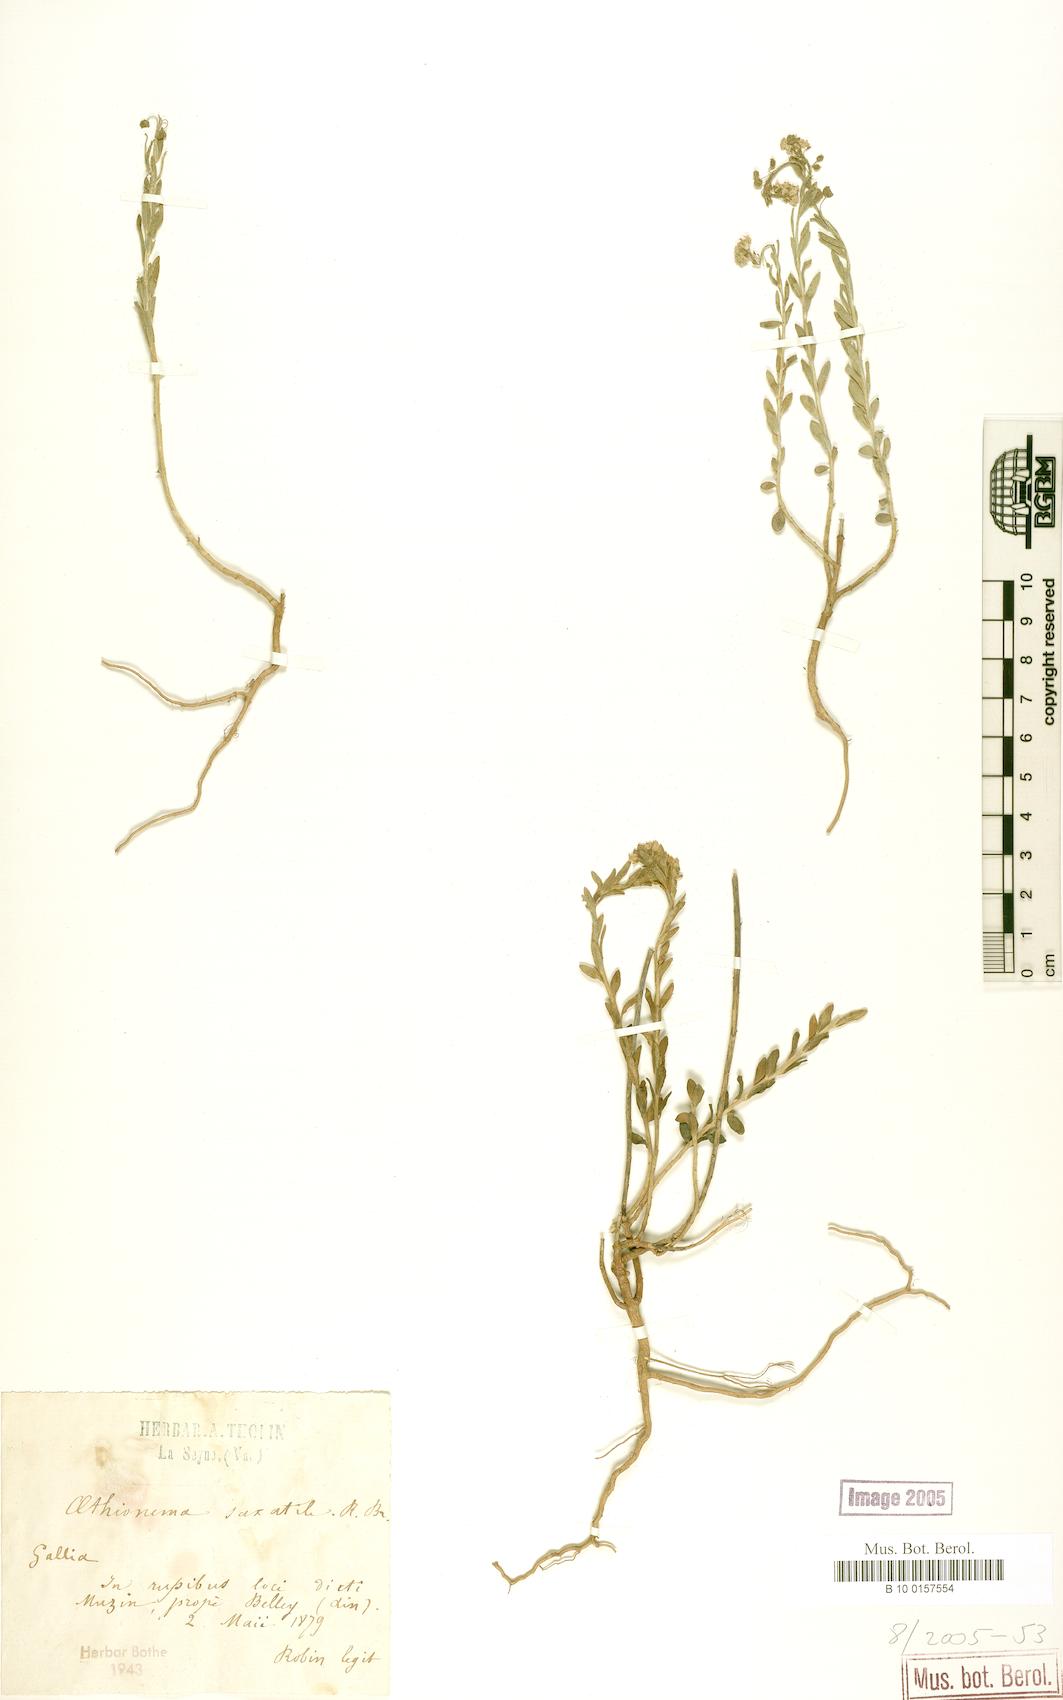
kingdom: Plantae
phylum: Tracheophyta
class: Magnoliopsida
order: Brassicales
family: Brassicaceae
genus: Aethionema
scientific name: Aethionema saxatile
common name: Burnt candytuft
